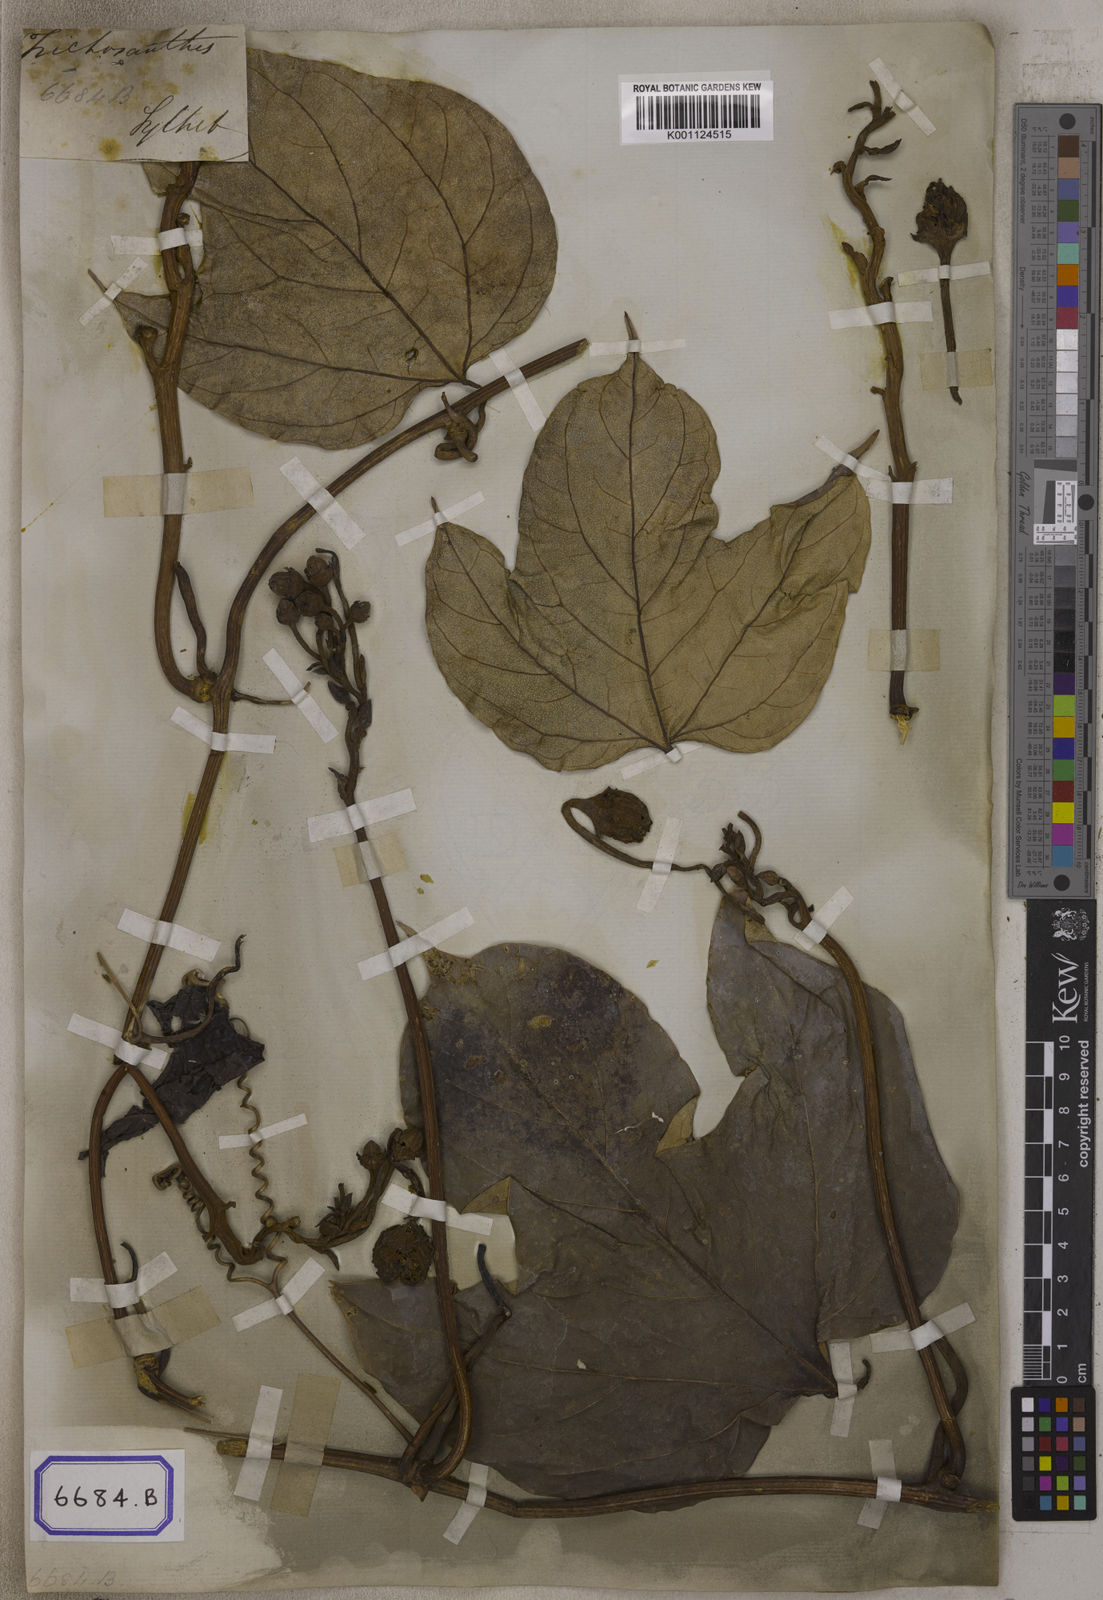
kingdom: Plantae
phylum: Tracheophyta
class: Magnoliopsida
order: Cucurbitales
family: Cucurbitaceae
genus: Hodgsonia
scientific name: Hodgsonia heteroclita
